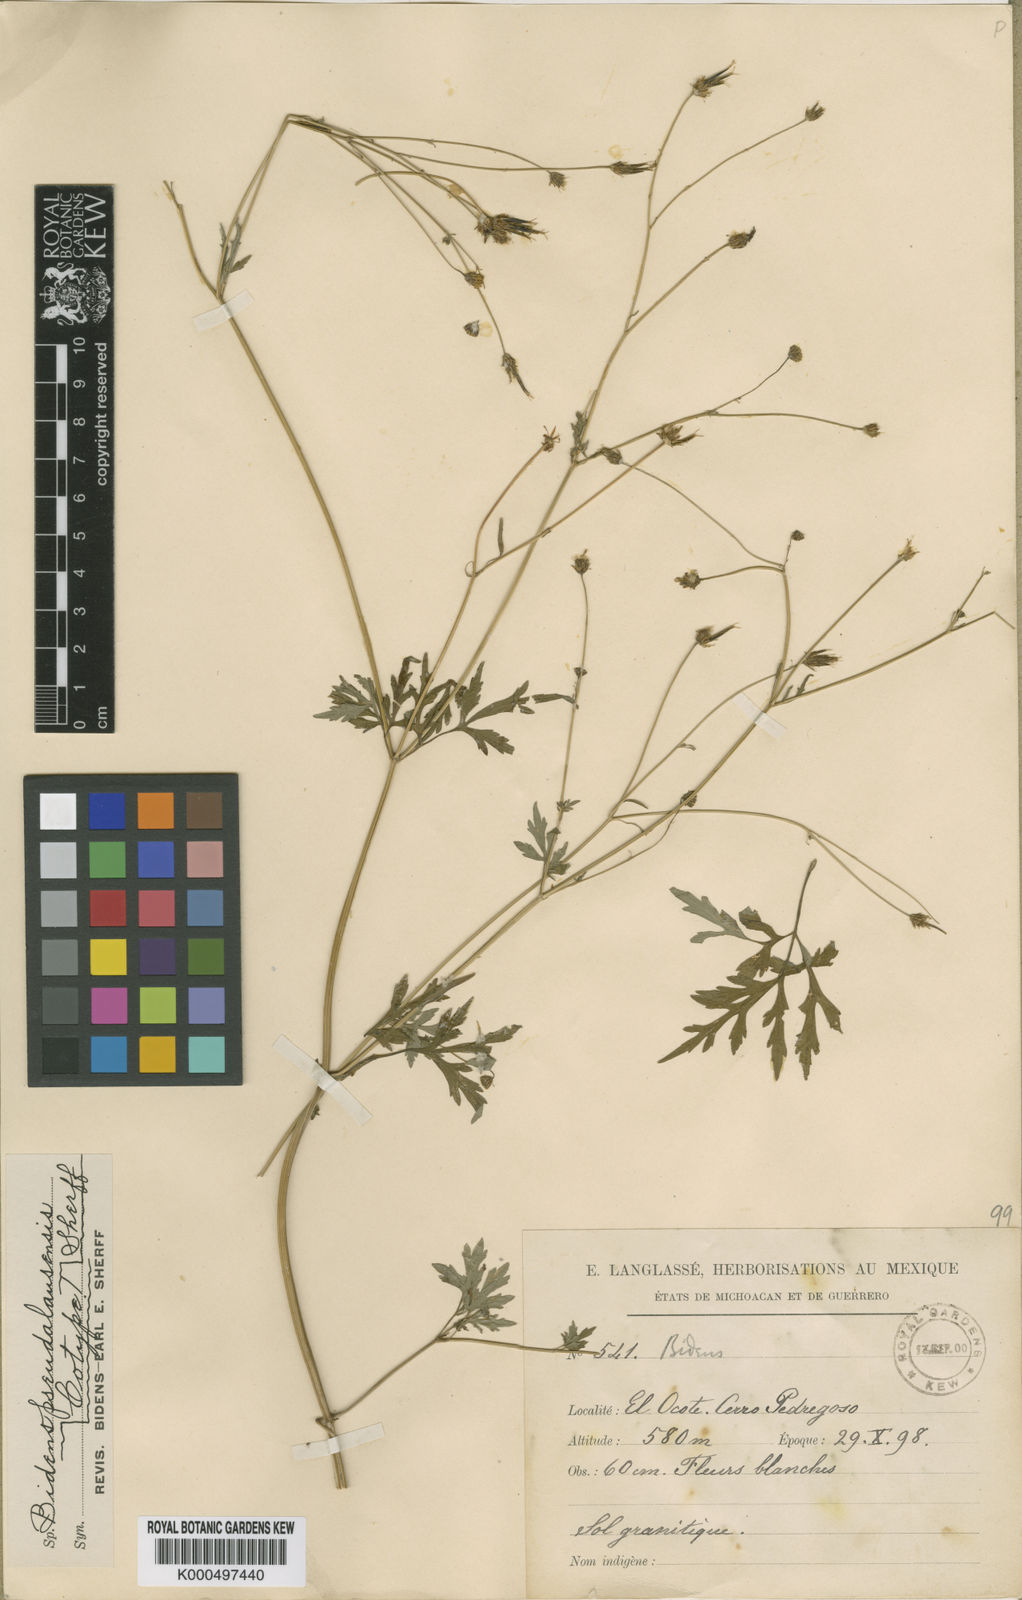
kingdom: Plantae
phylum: Tracheophyta
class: Magnoliopsida
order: Asterales
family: Asteraceae
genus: Bidens
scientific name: Bidens pseudalausensis
